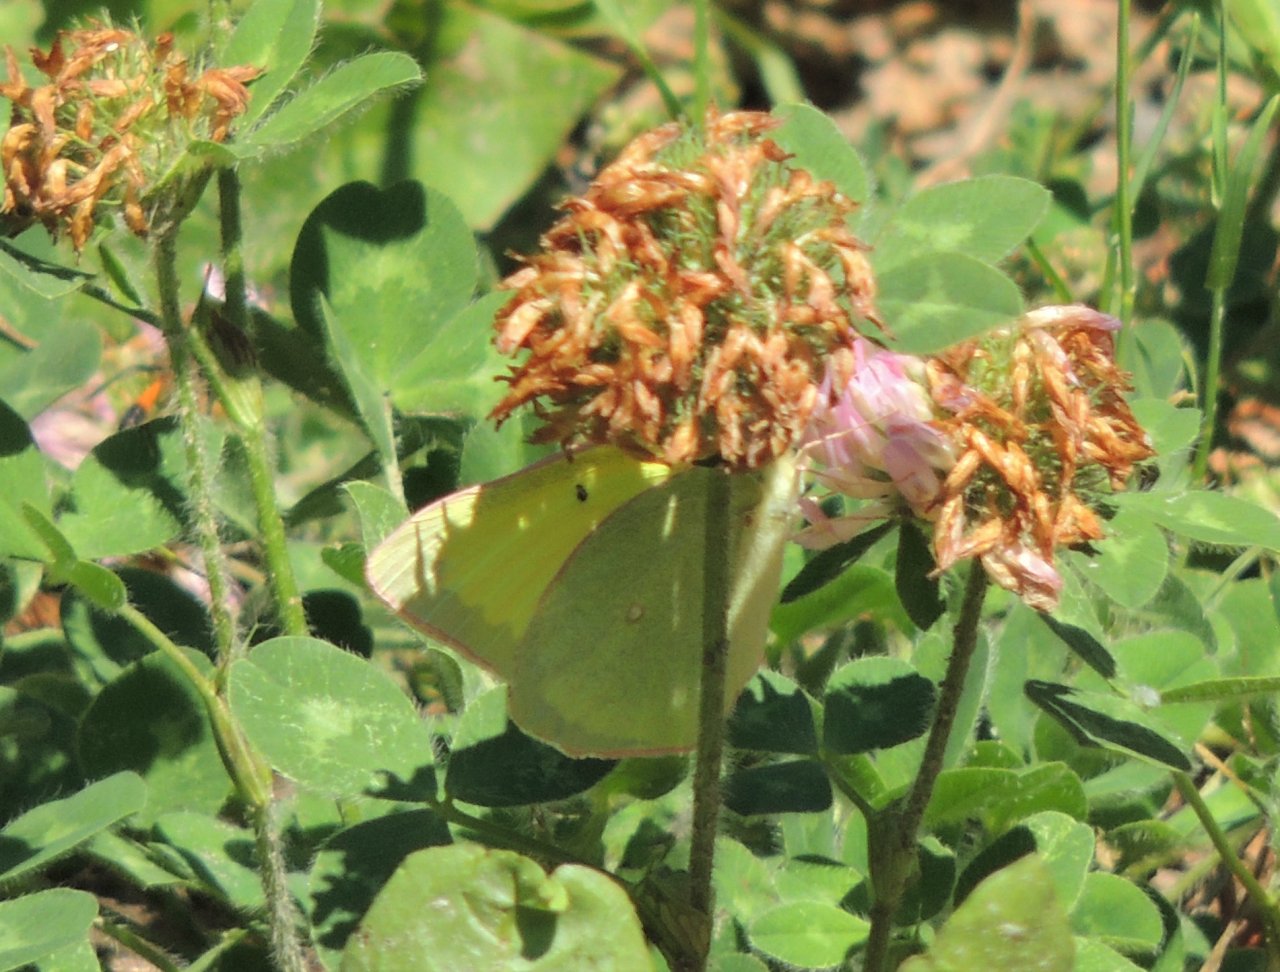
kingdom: Animalia
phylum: Arthropoda
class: Insecta
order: Lepidoptera
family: Pieridae
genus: Colias
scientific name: Colias alexandra
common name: Queen Alexandra's Sulphur
